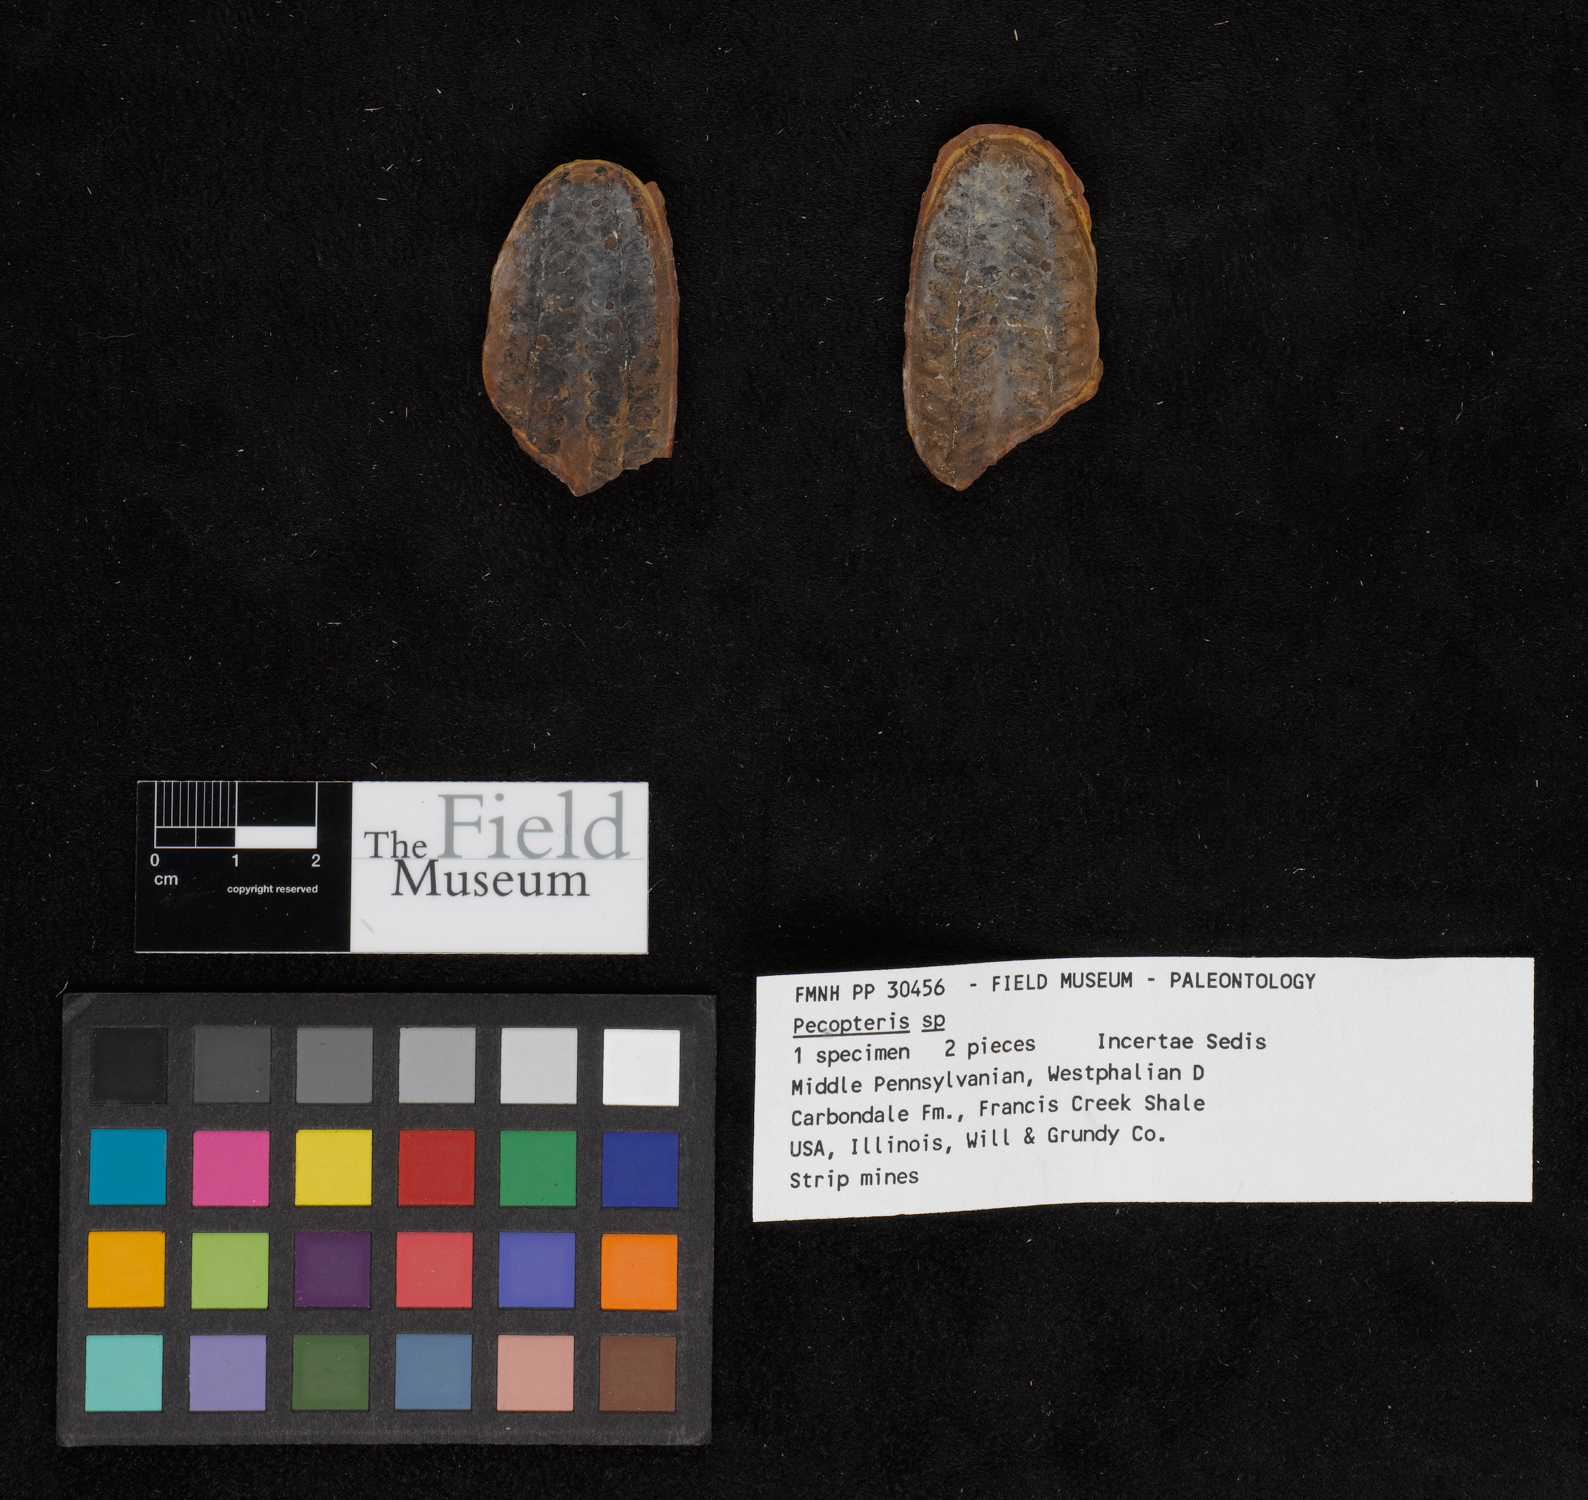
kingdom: Plantae
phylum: Tracheophyta
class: Polypodiopsida
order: Marattiales
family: Asterothecaceae
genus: Pecopteris
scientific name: Pecopteris
